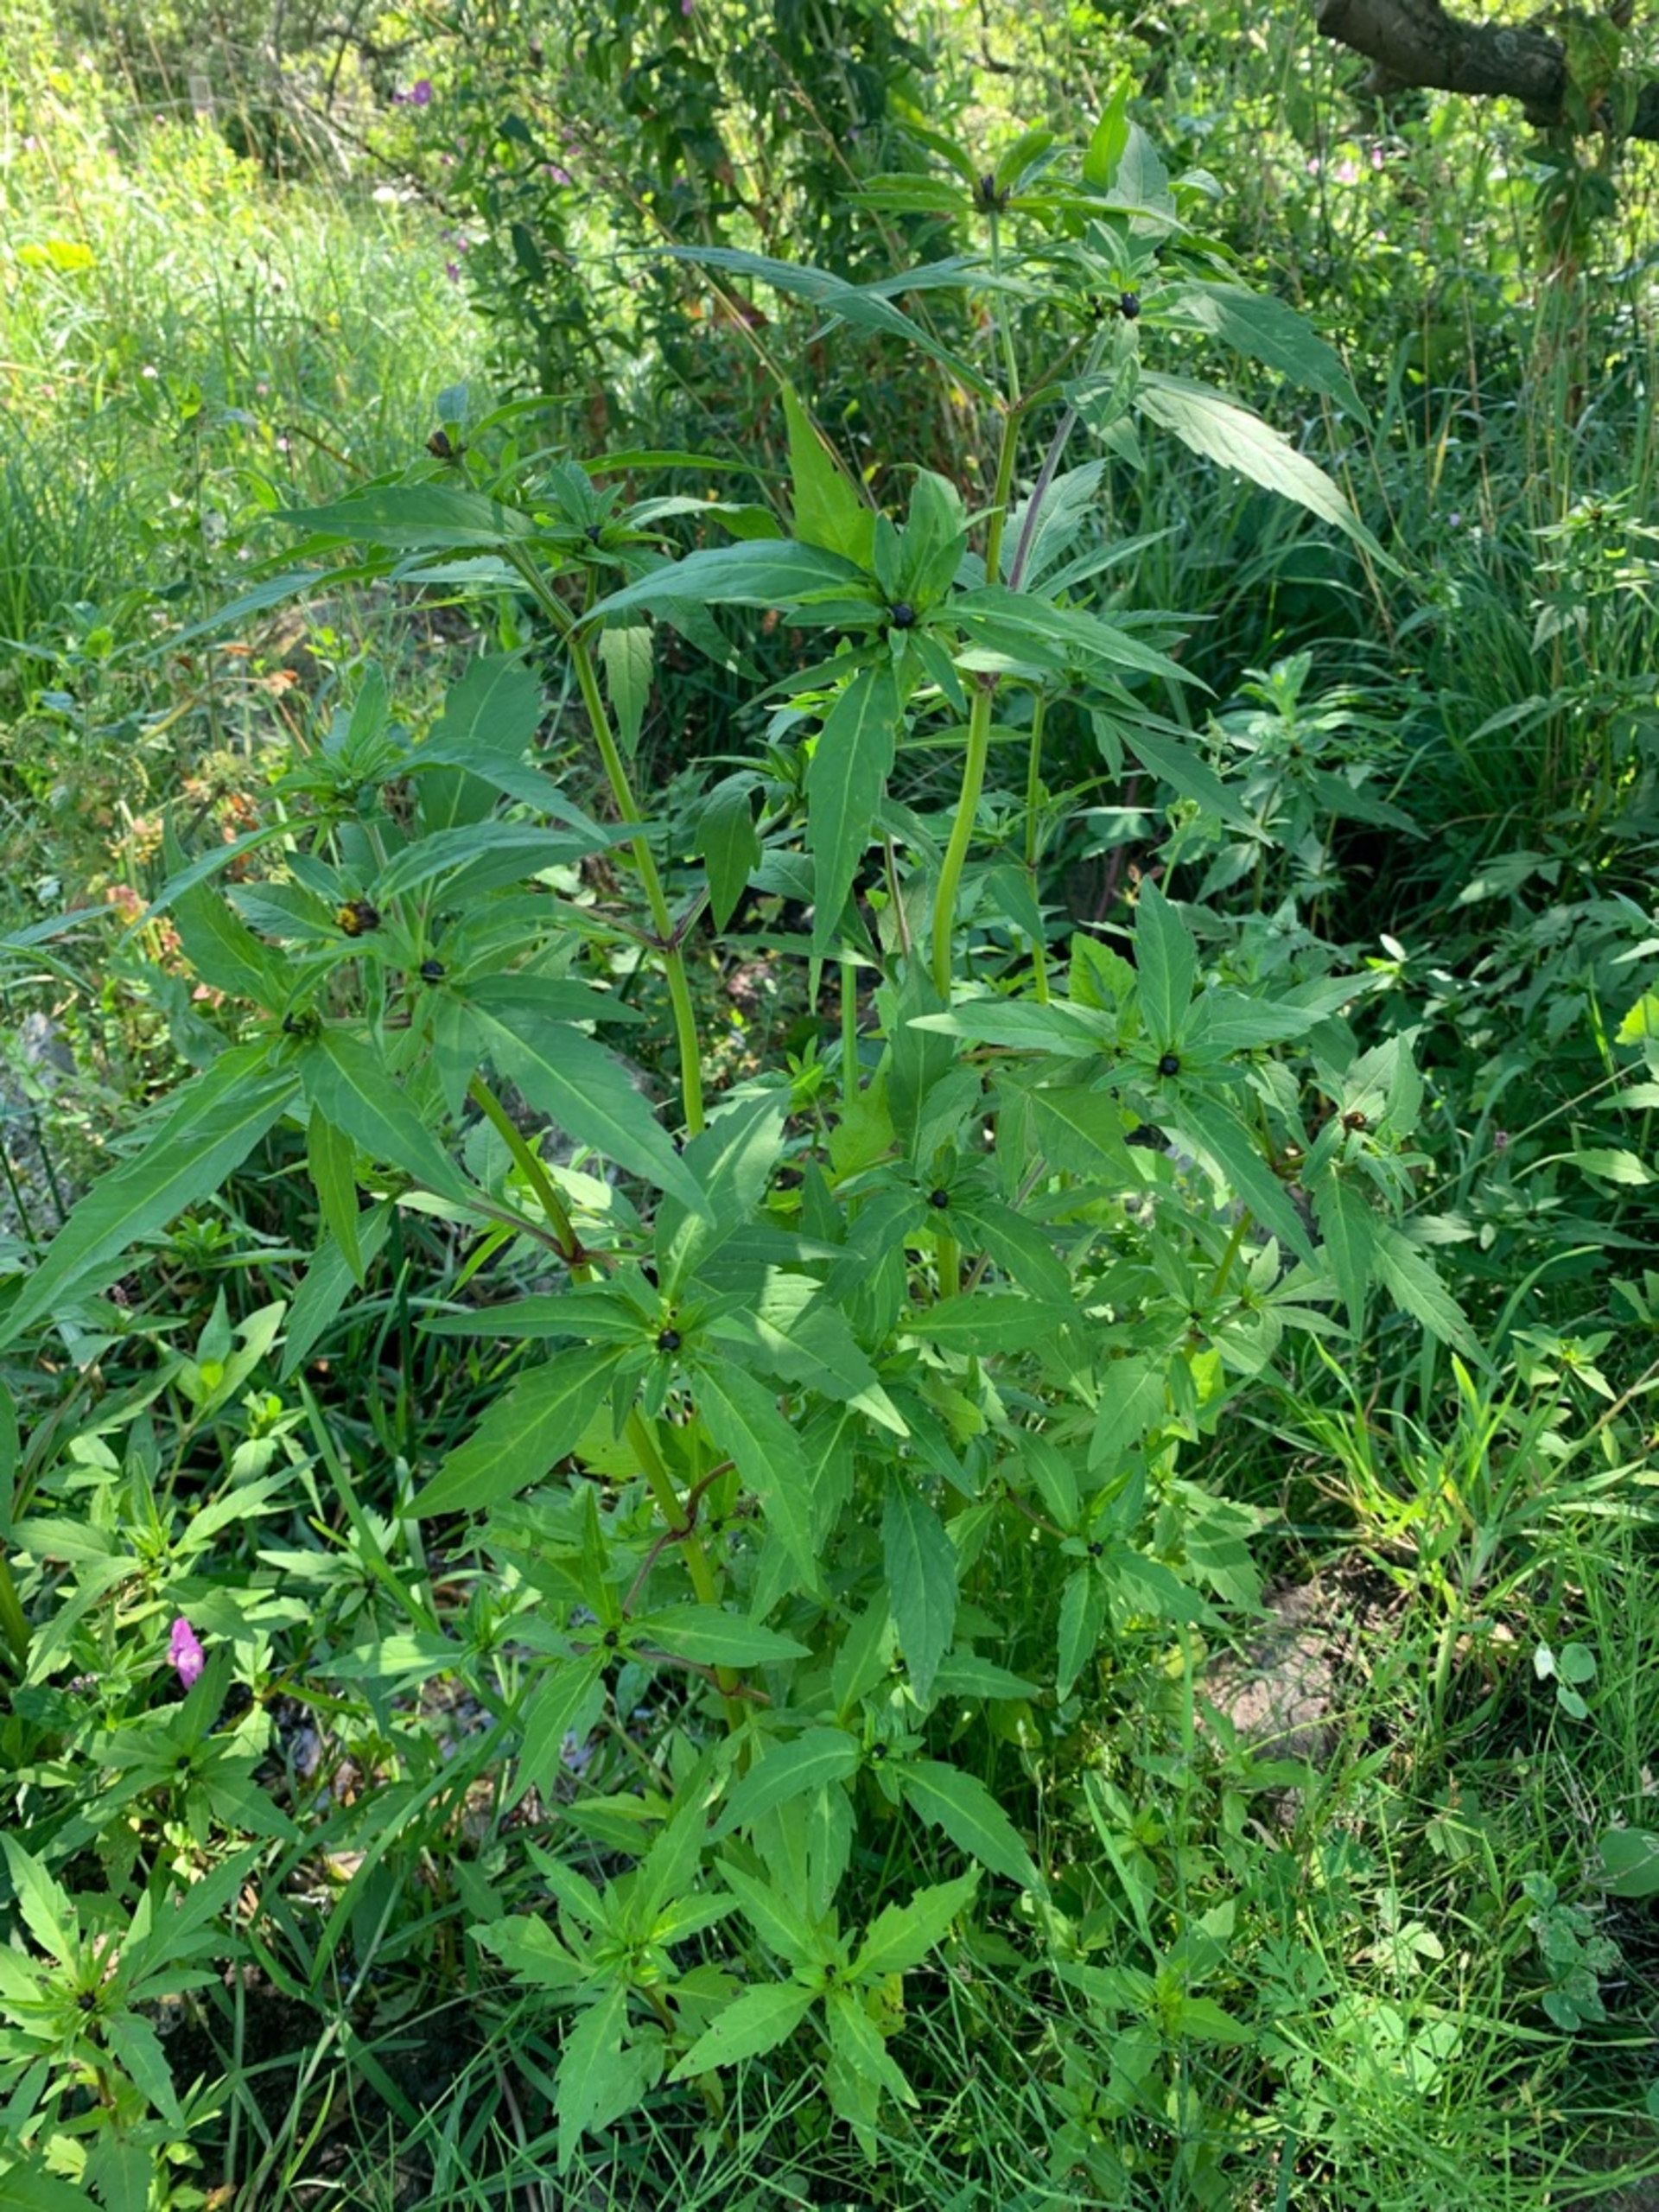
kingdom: Plantae
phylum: Tracheophyta
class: Magnoliopsida
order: Asterales
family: Asteraceae
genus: Bidens
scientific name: Bidens tripartita
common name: Fliget brøndsel
